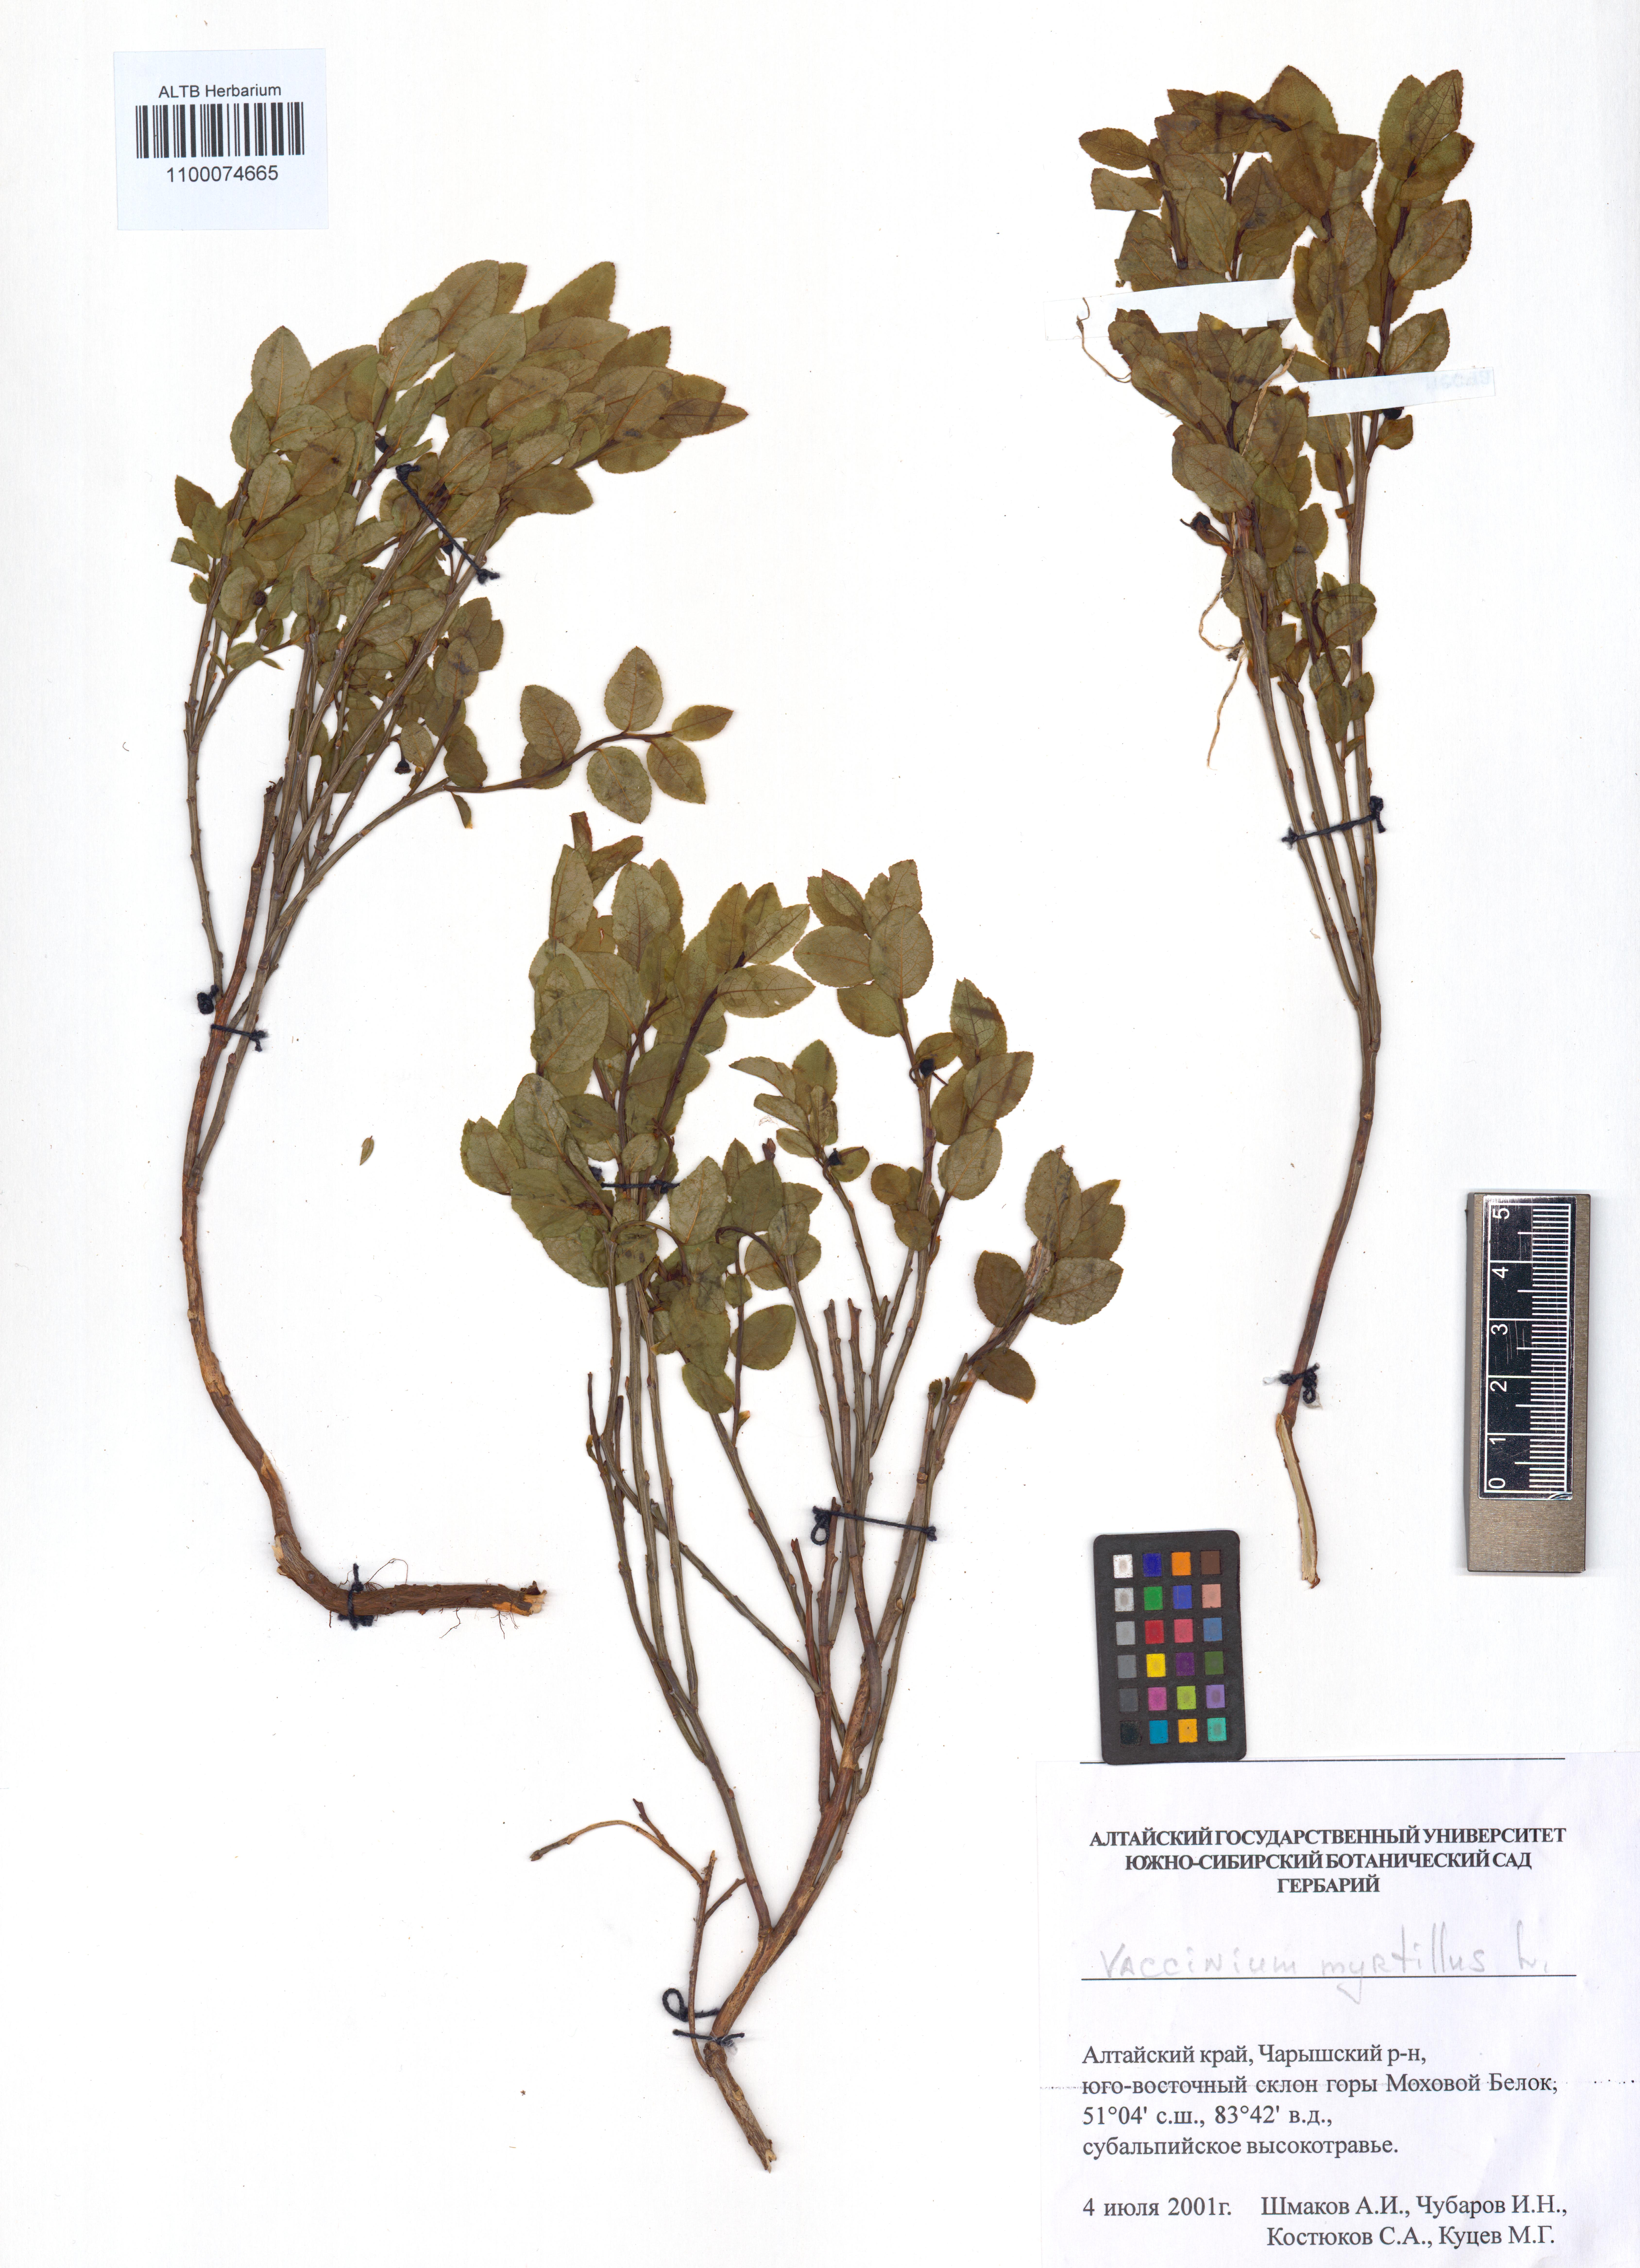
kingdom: Plantae
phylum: Tracheophyta
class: Magnoliopsida
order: Ericales
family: Ericaceae
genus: Vaccinium
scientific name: Vaccinium myrtillus
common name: Bilberry
